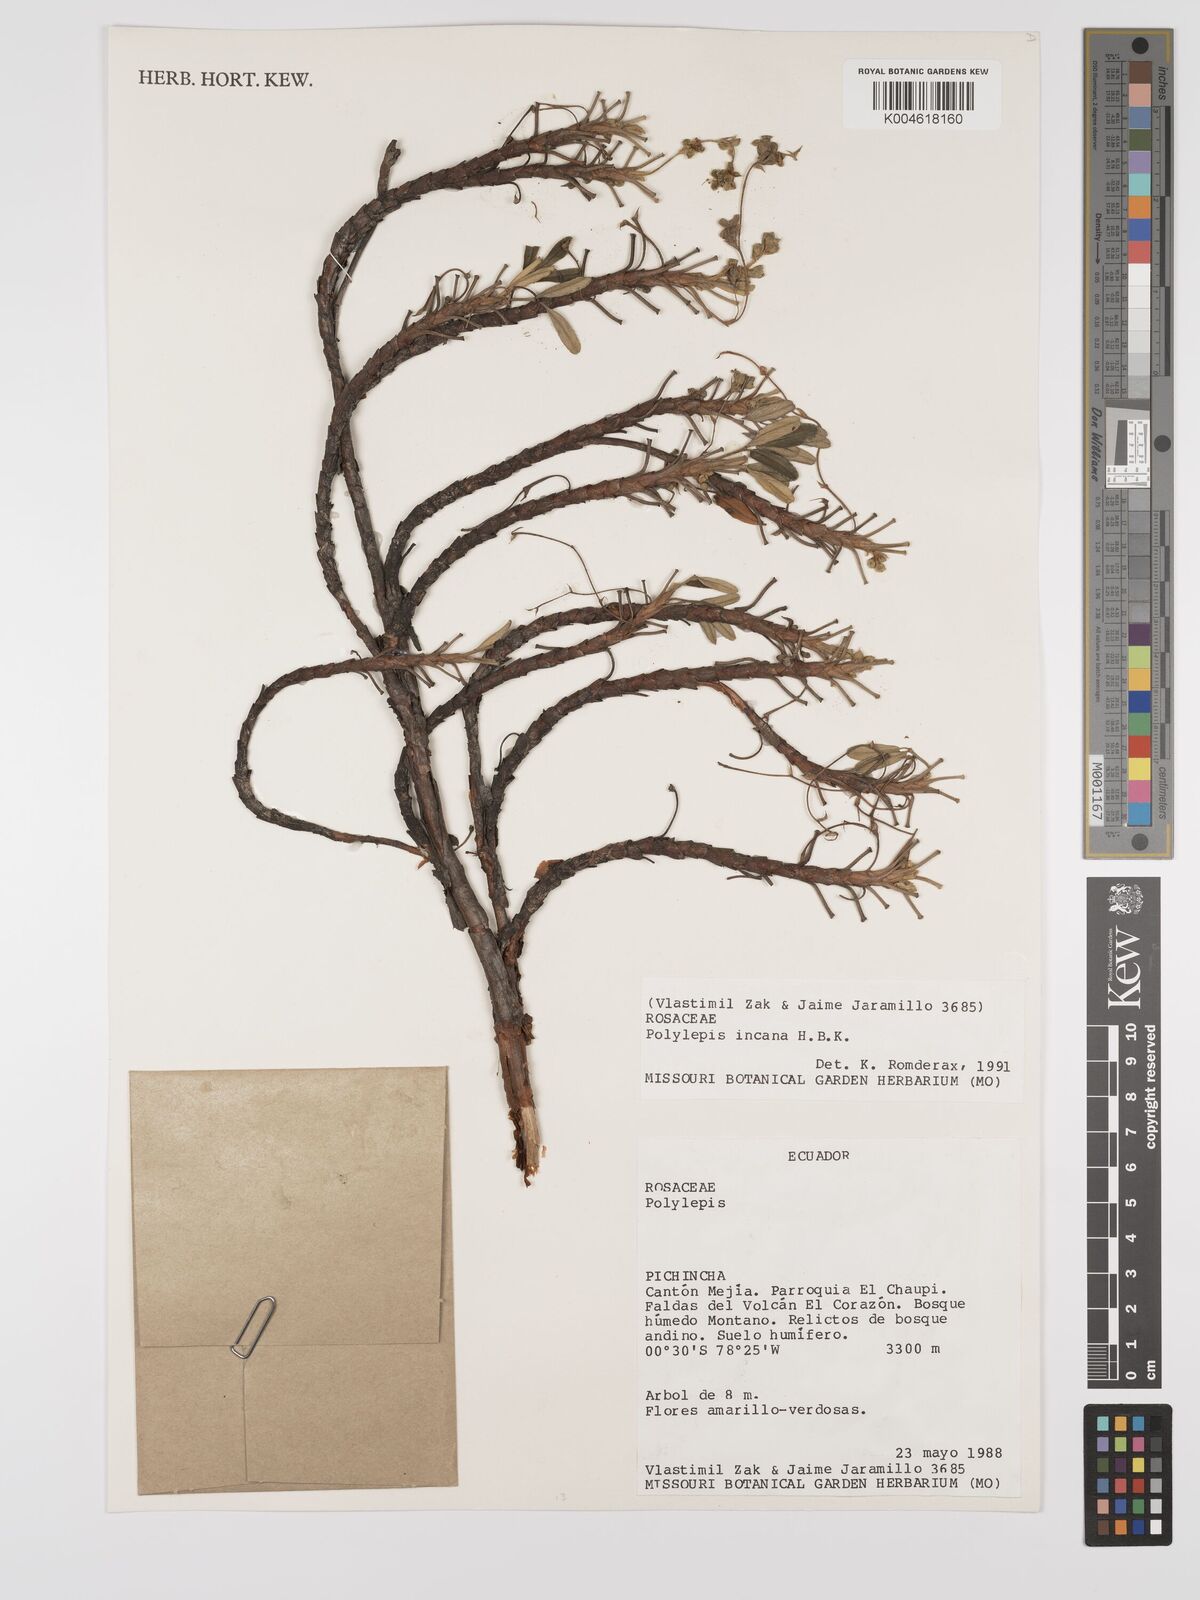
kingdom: Plantae
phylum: Tracheophyta
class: Magnoliopsida
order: Rosales
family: Rosaceae
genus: Polylepis
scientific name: Polylepis incana
